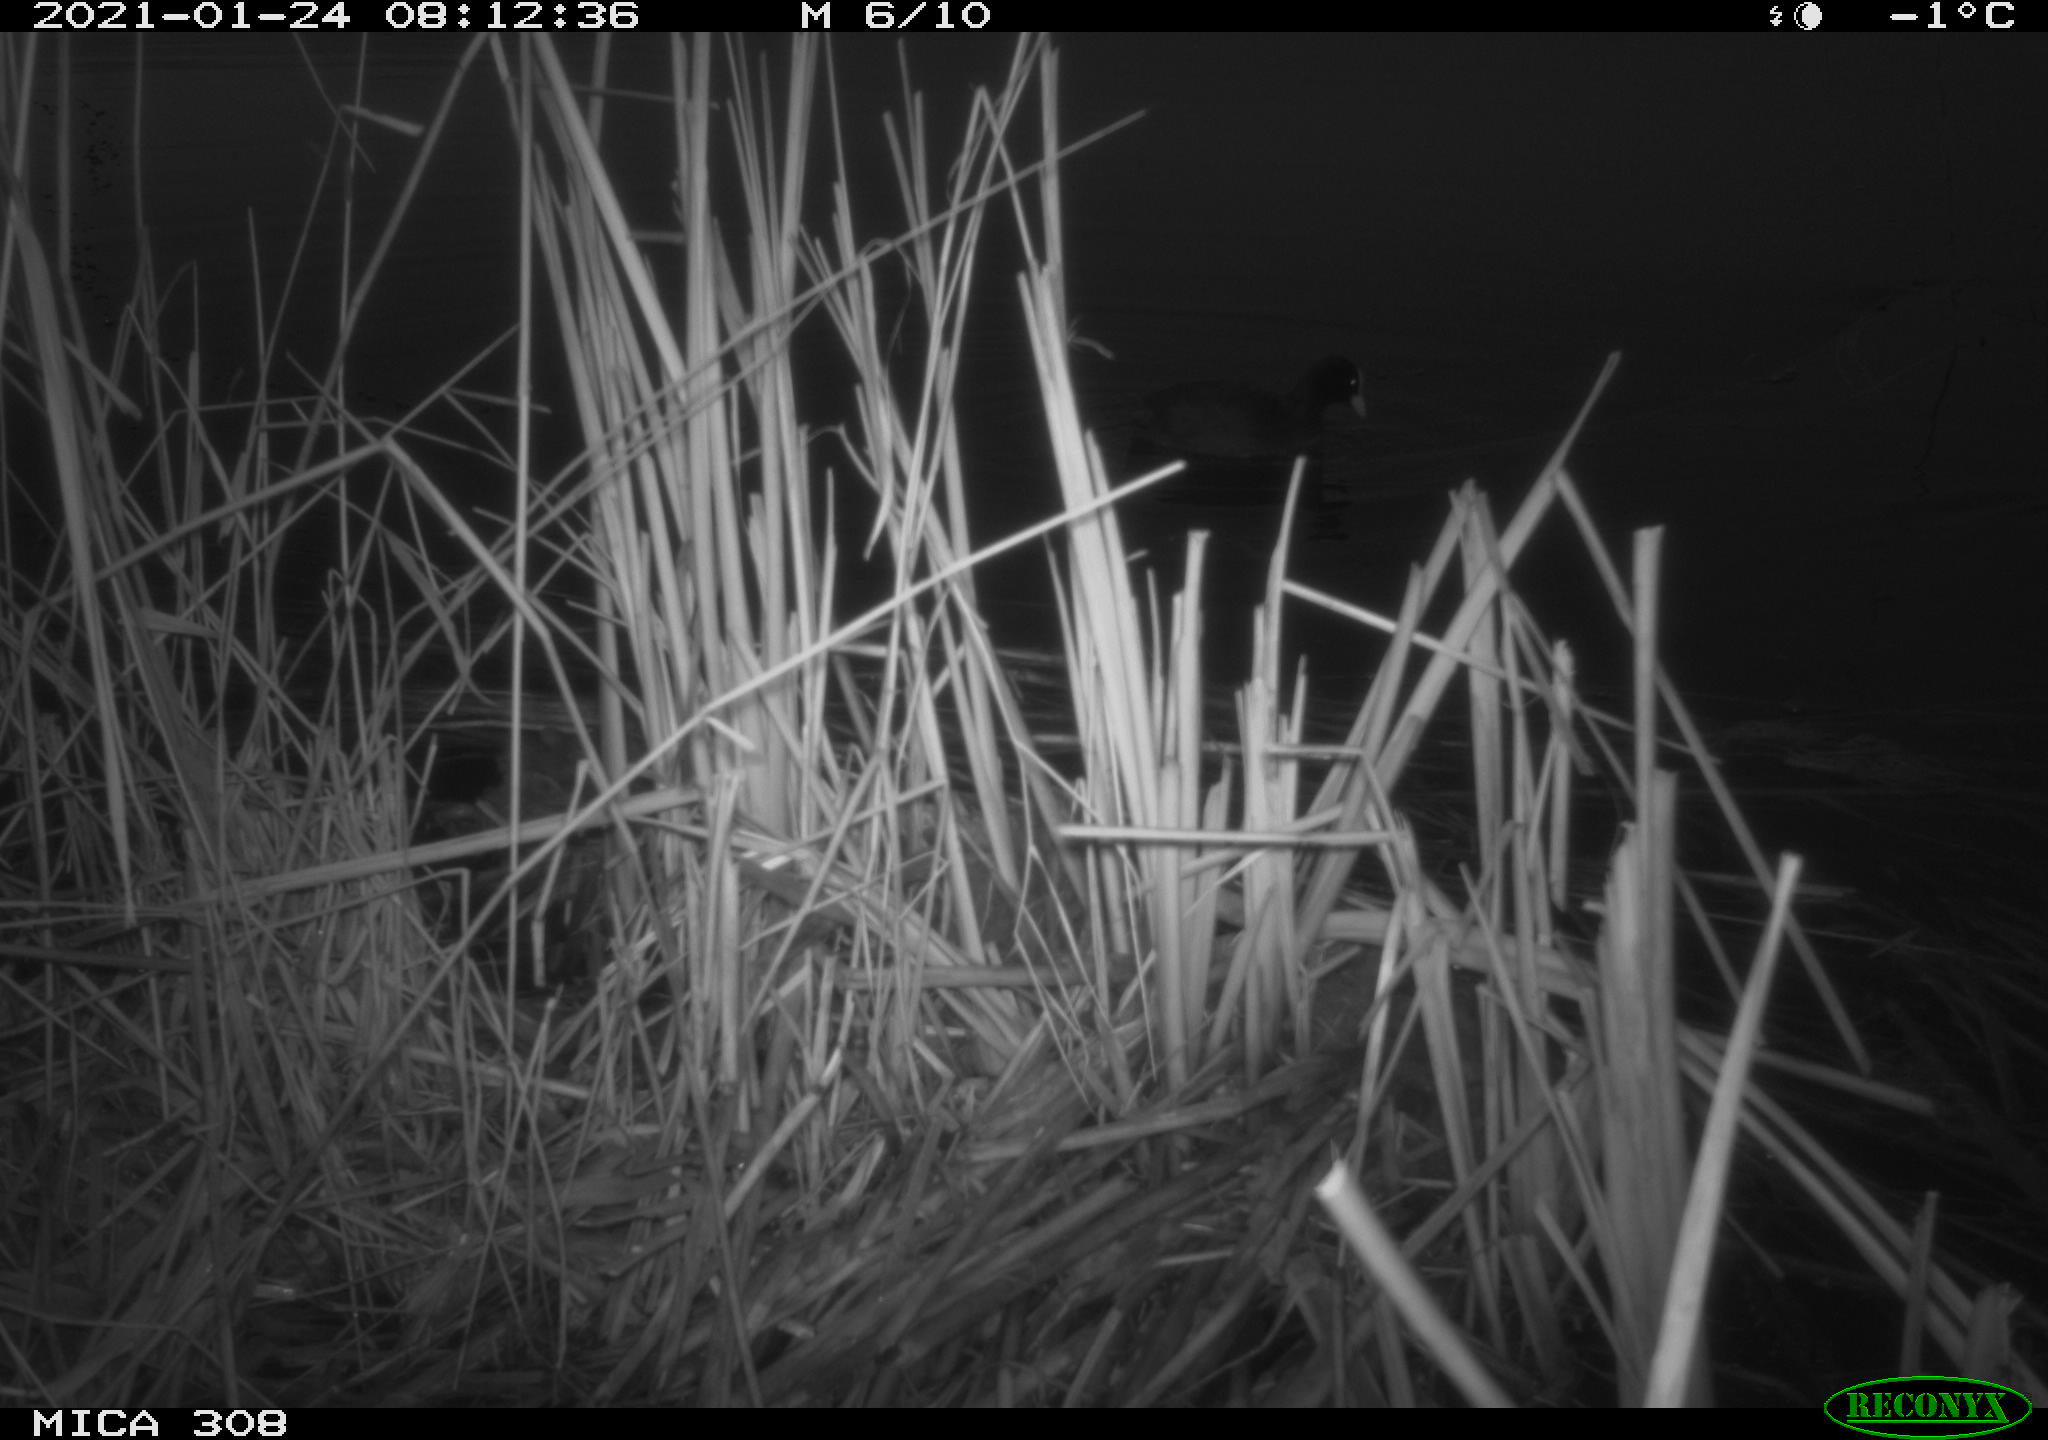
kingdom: Animalia
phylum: Chordata
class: Aves
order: Gruiformes
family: Rallidae
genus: Gallinula
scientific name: Gallinula chloropus
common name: Common moorhen
